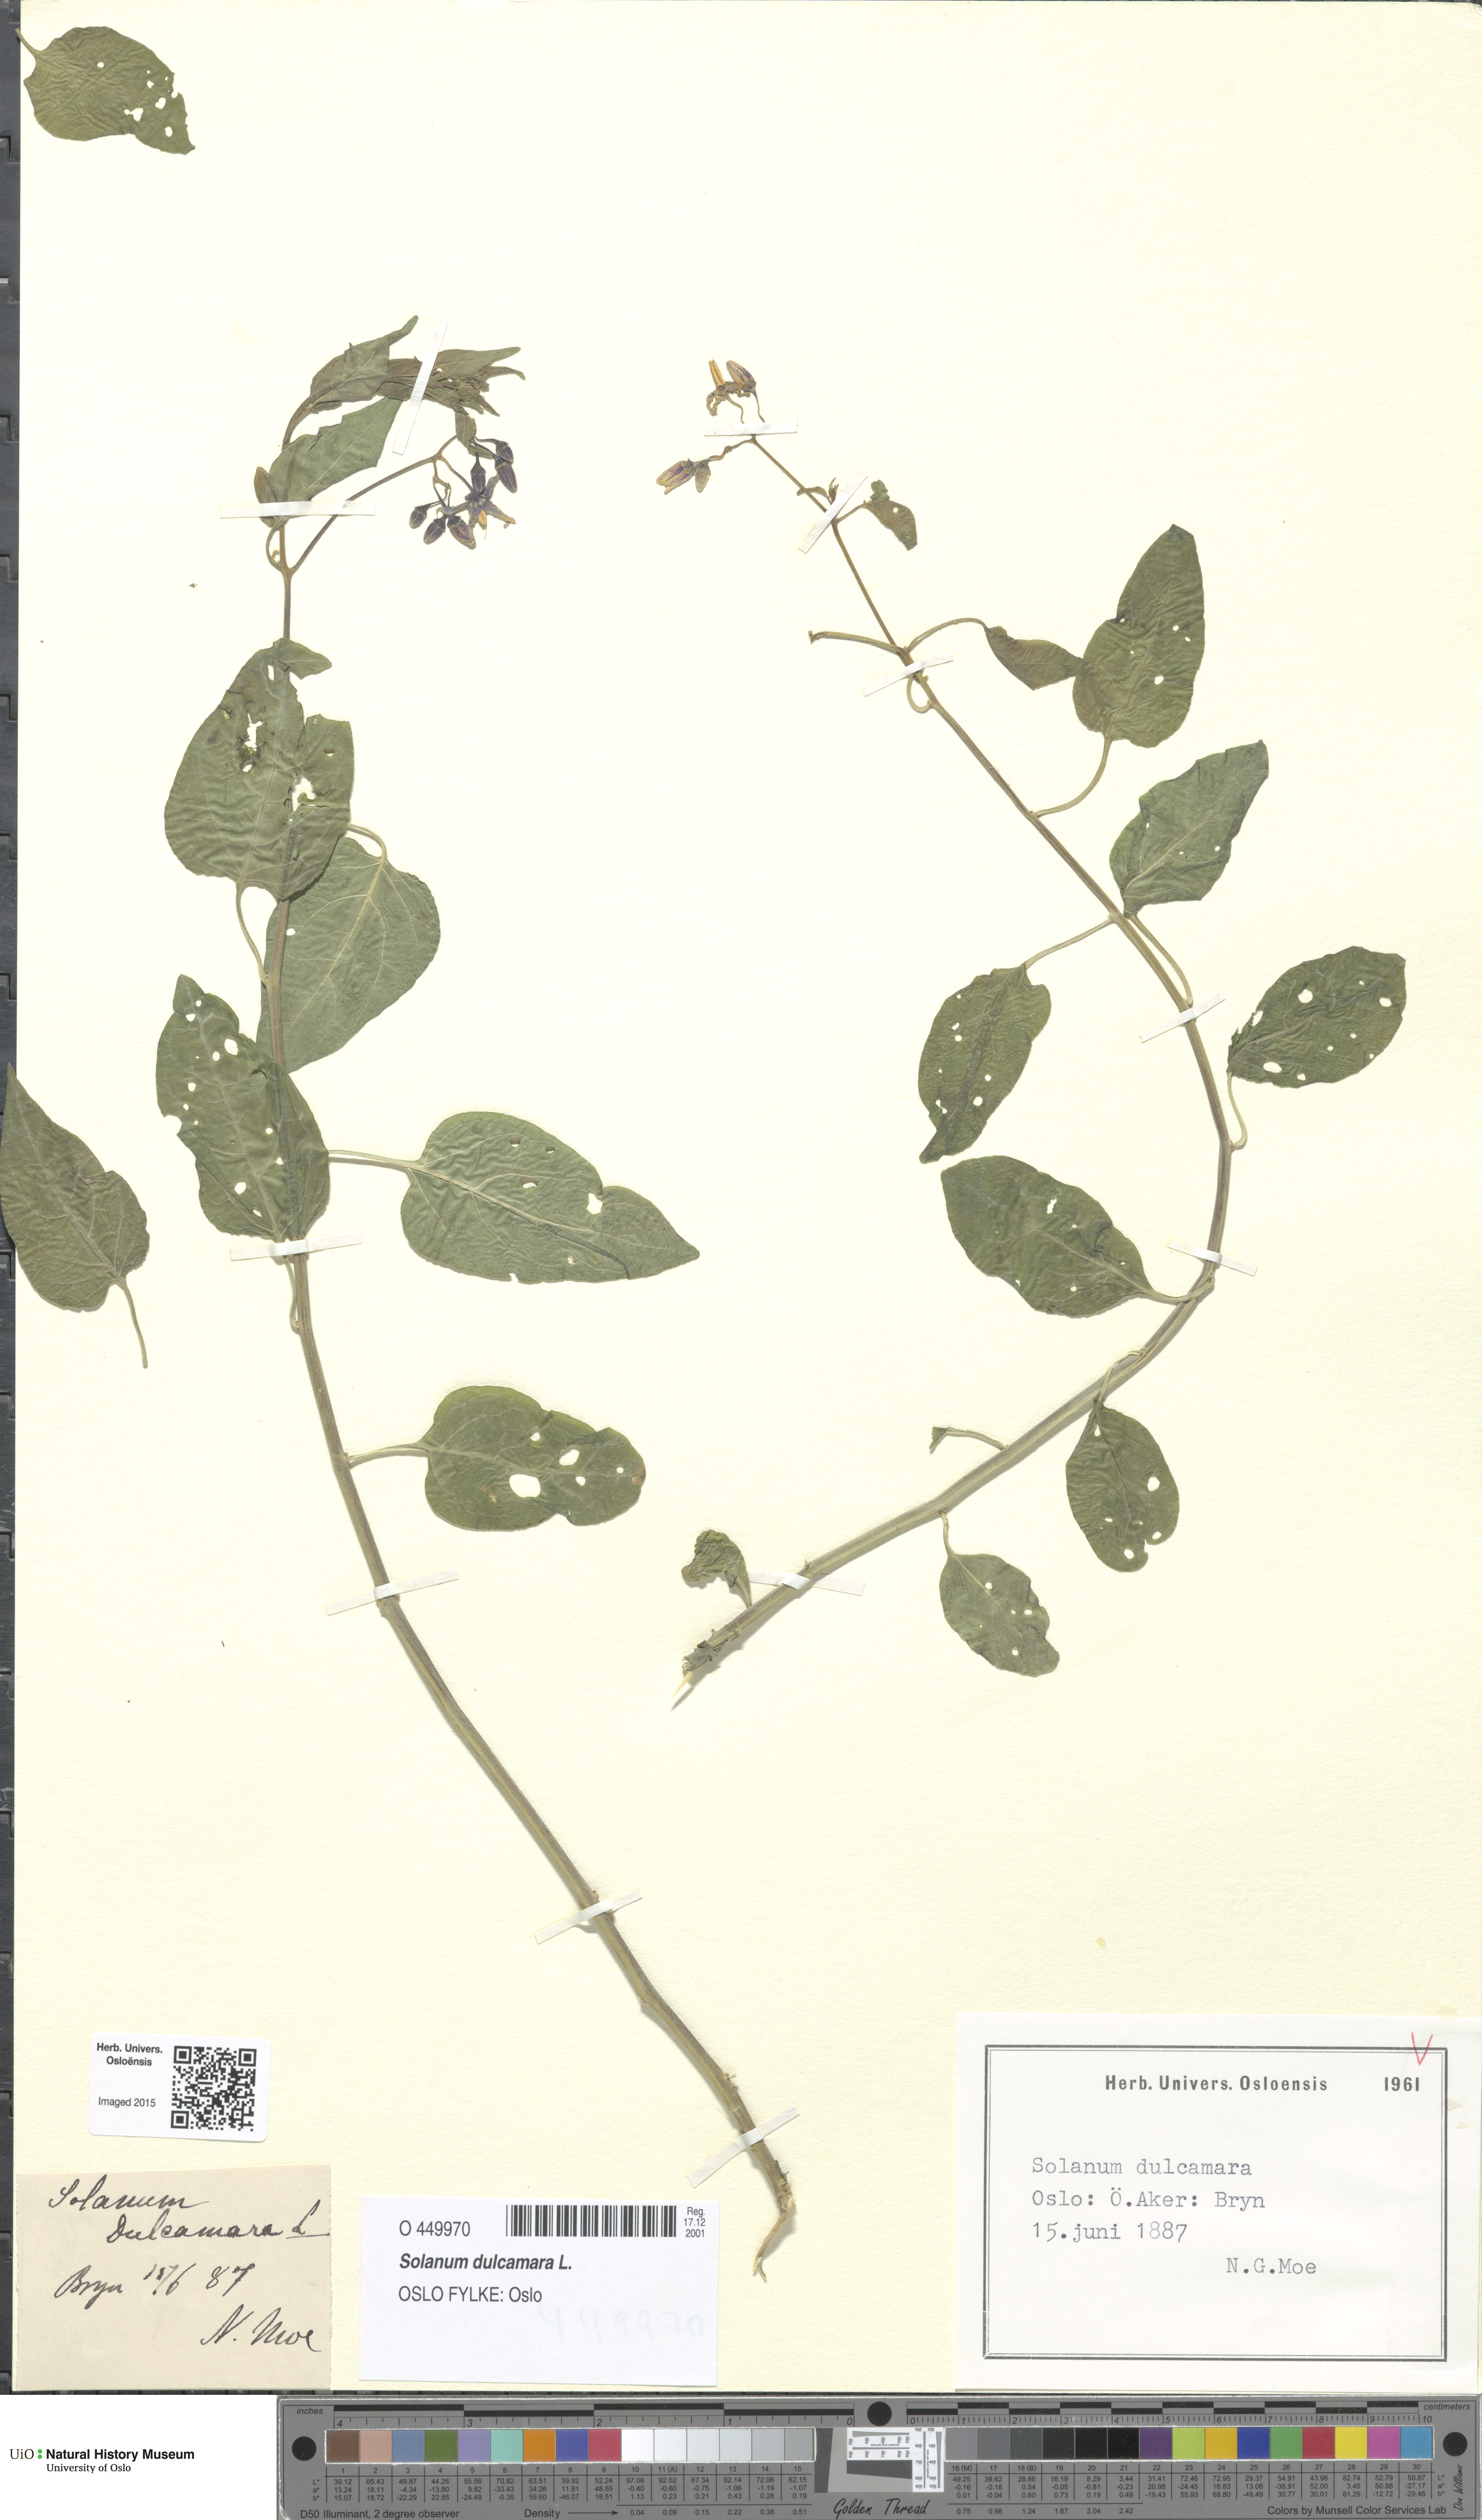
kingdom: Plantae
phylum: Tracheophyta
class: Magnoliopsida
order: Solanales
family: Solanaceae
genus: Solanum
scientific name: Solanum dulcamara
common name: Climbing nightshade
